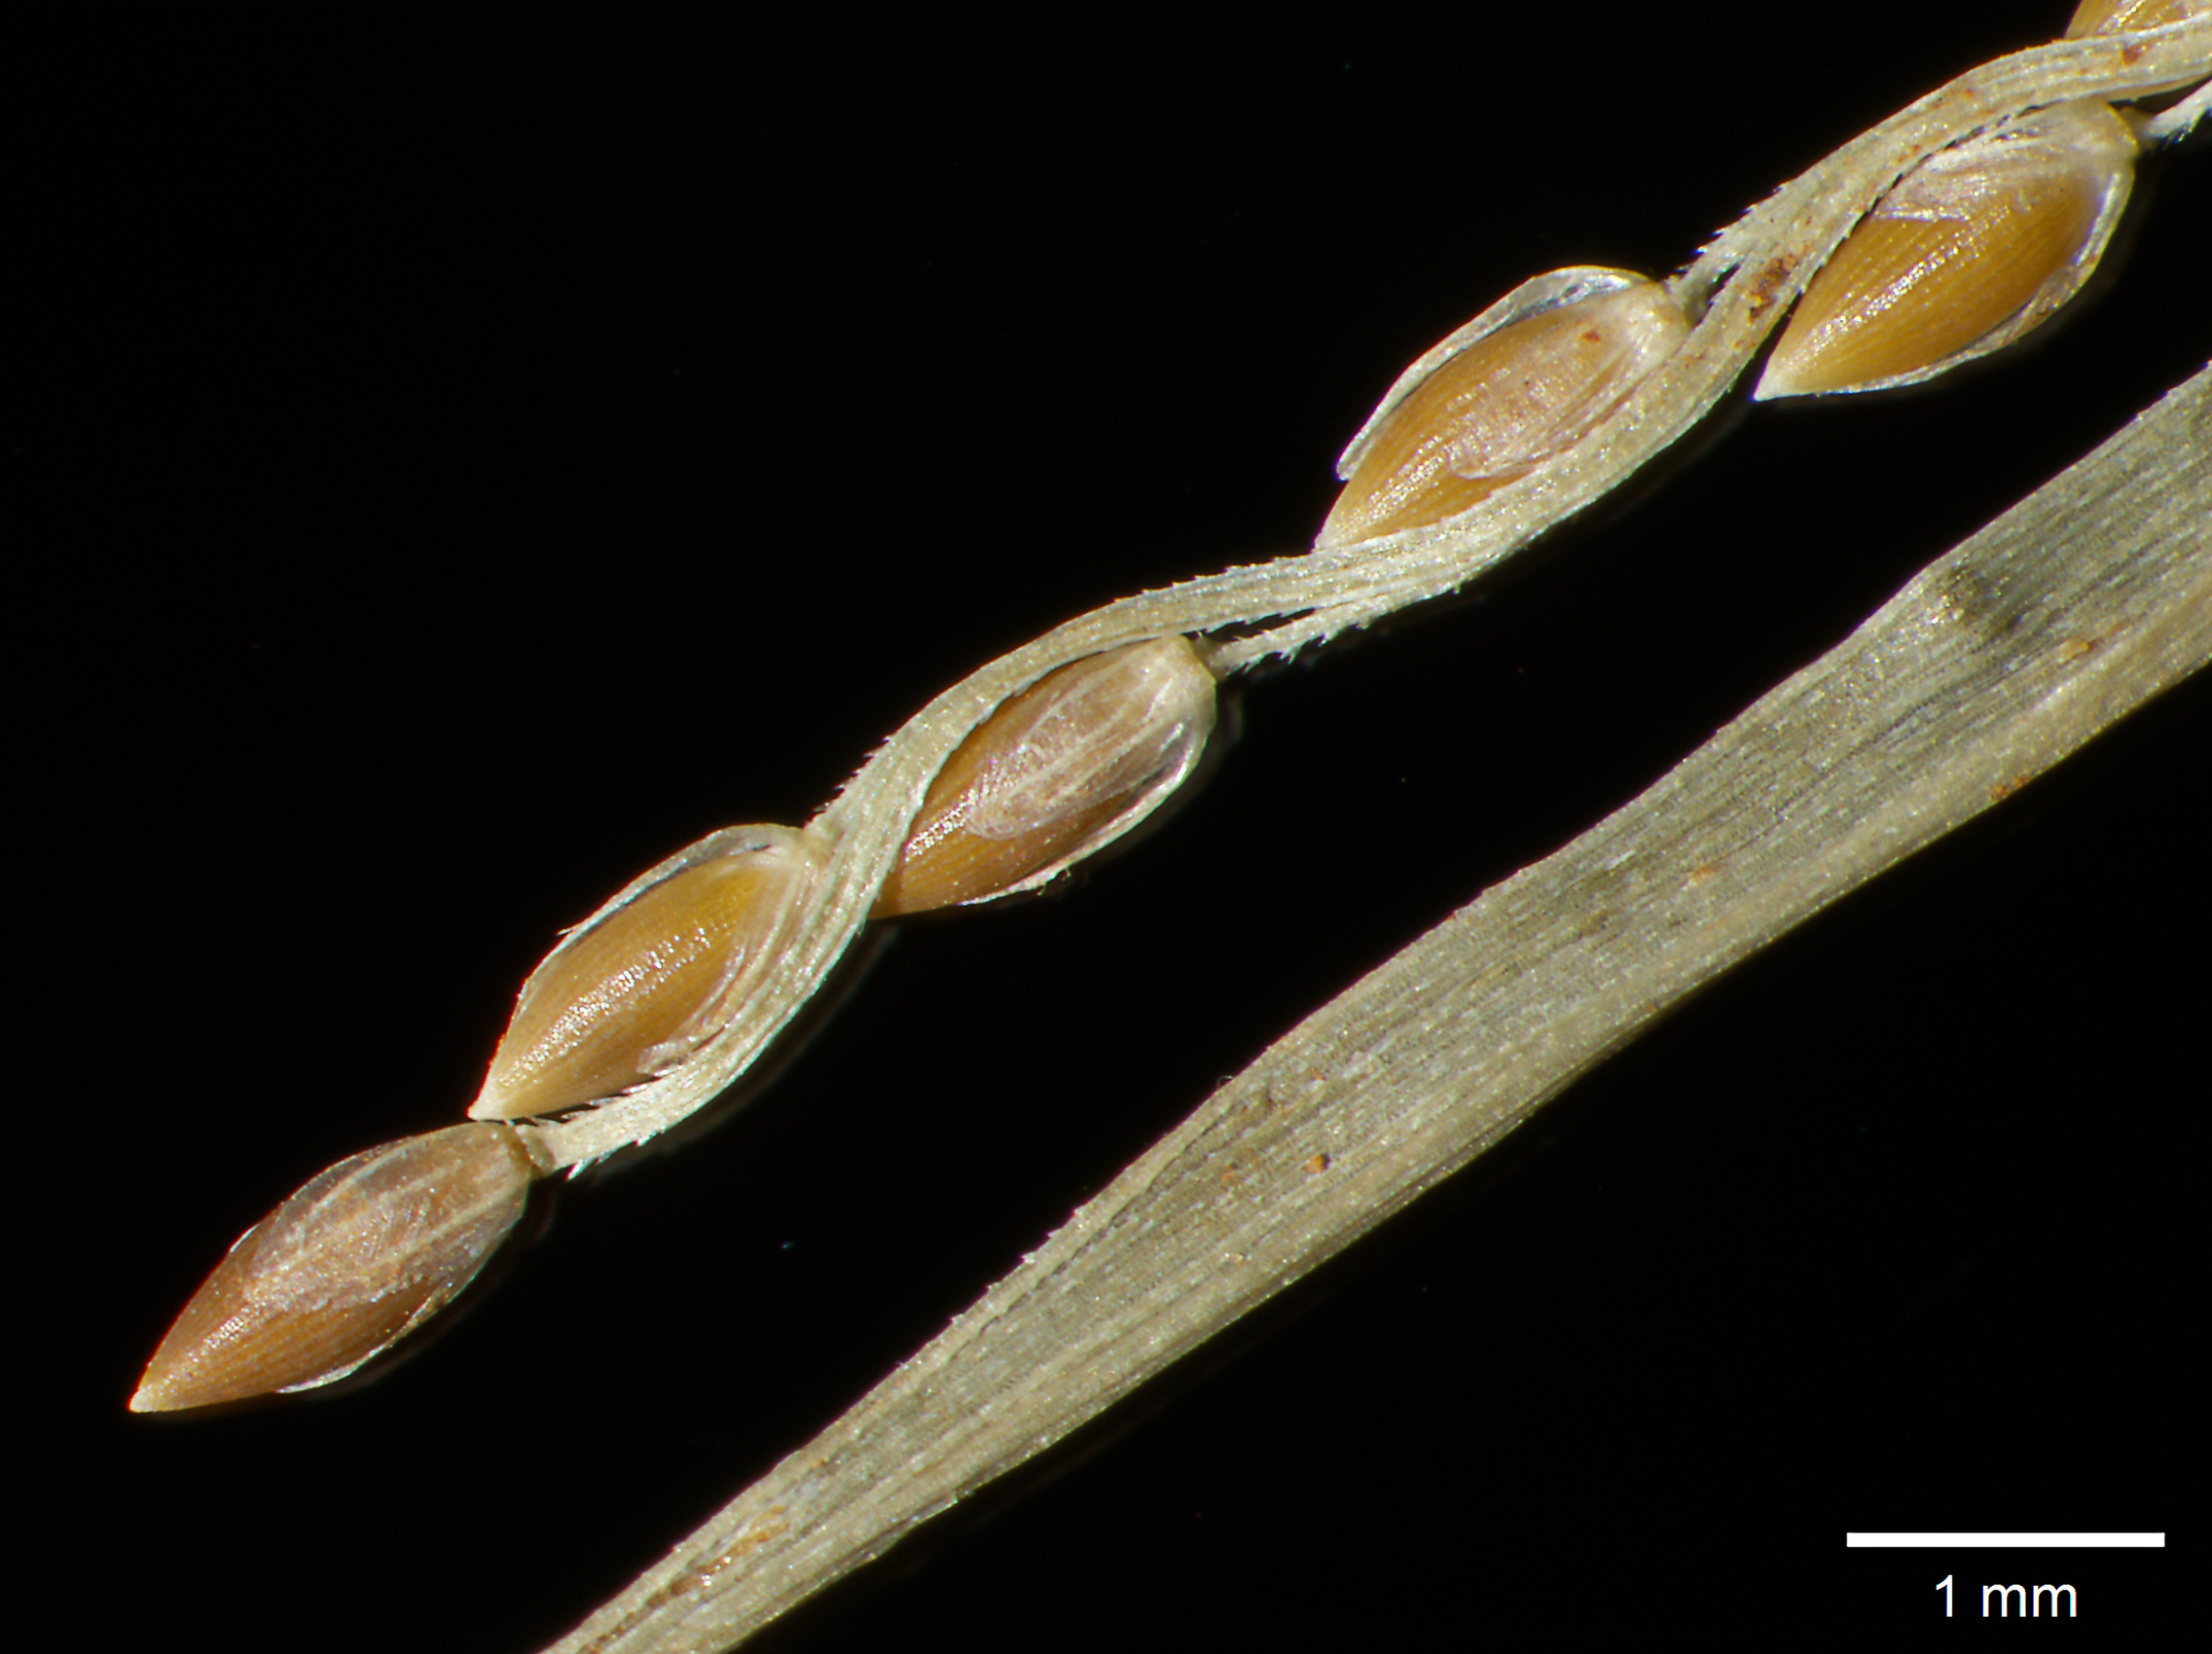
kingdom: Plantae
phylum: Tracheophyta
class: Liliopsida
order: Poales
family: Poaceae
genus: Digitaria
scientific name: Digitaria curvinervis
